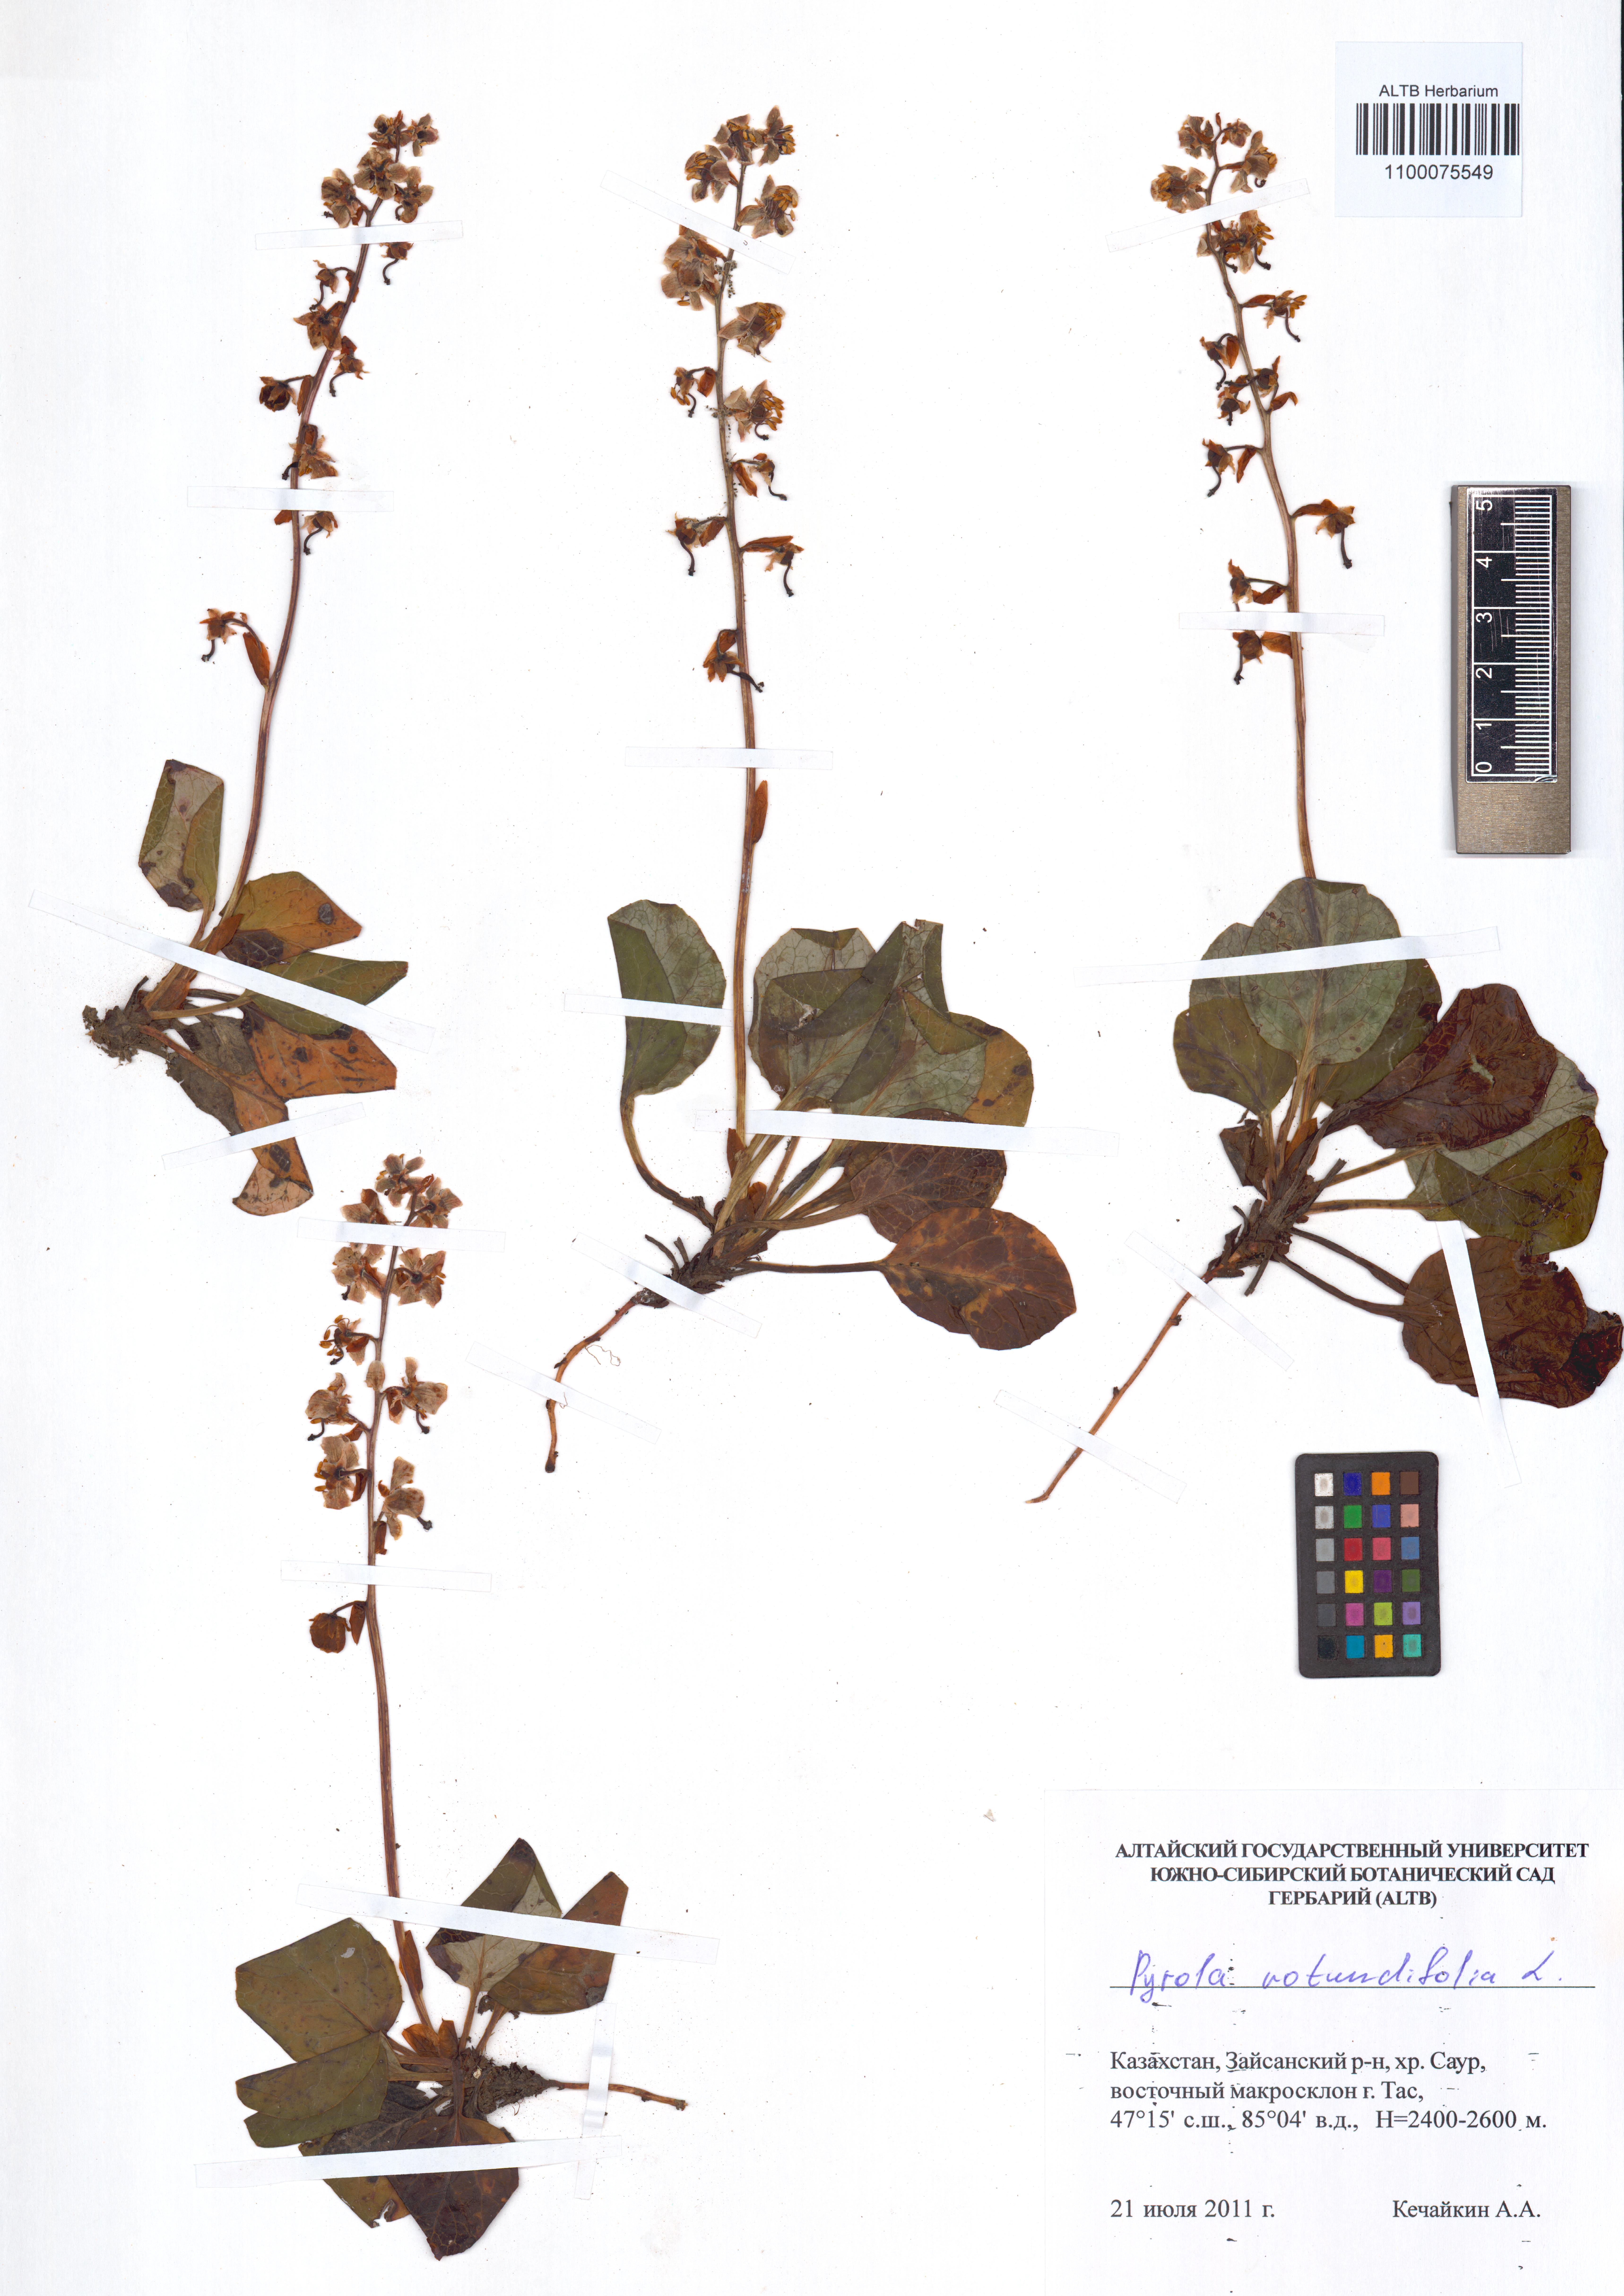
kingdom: Plantae
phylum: Tracheophyta
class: Magnoliopsida
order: Ericales
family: Ericaceae
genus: Pyrola
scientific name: Pyrola rotundifolia
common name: Round-leaved wintergreen
